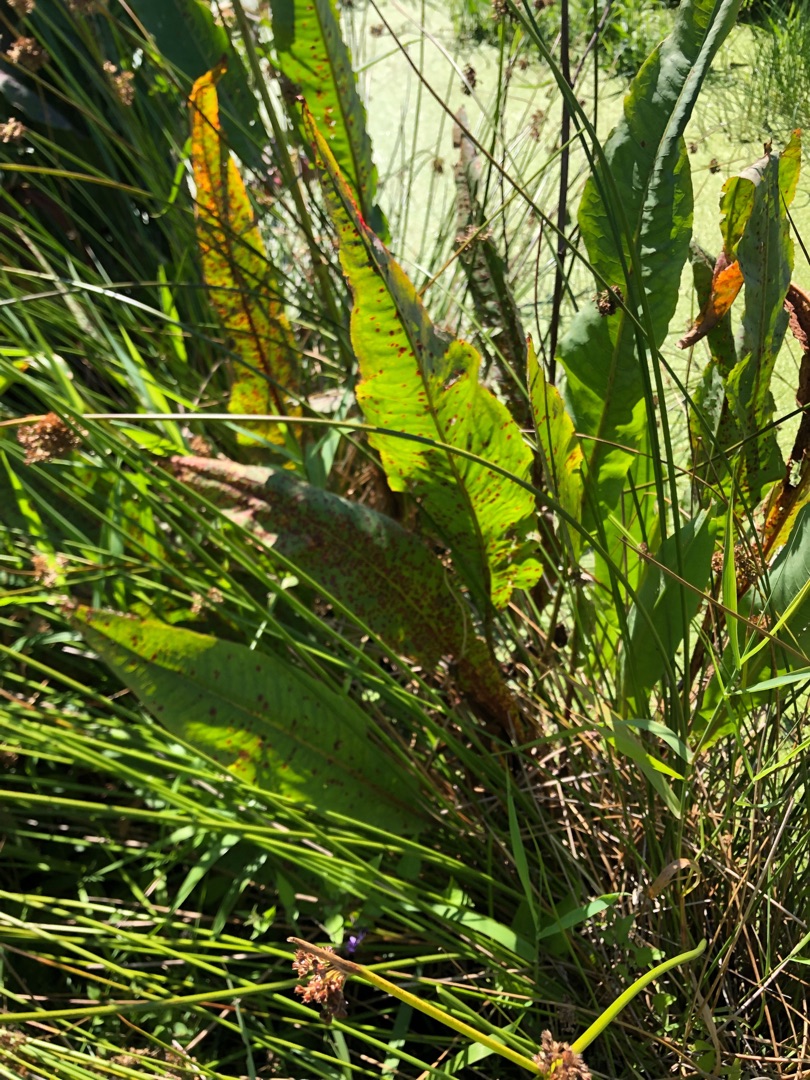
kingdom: Plantae
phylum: Tracheophyta
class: Magnoliopsida
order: Caryophyllales
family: Polygonaceae
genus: Rumex
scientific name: Rumex hydrolapathum
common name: Vand-skræppe
